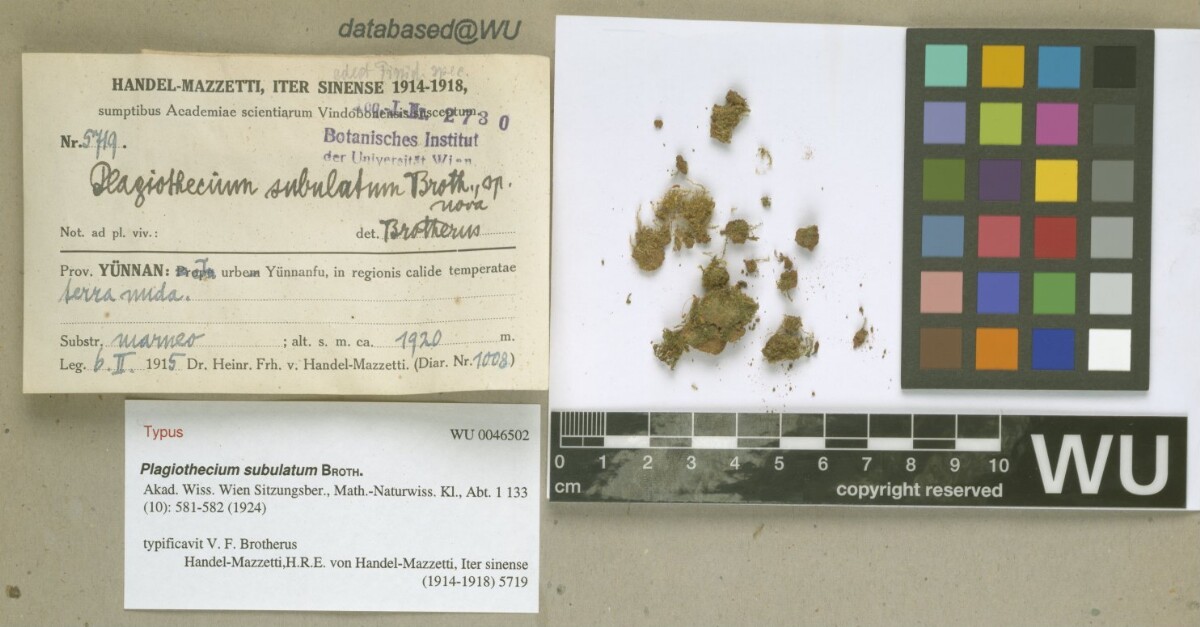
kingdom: Plantae
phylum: Bryophyta
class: Bryopsida
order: Hypnales
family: Hypnaceae
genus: Vesicularia
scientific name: Vesicularia subulata
